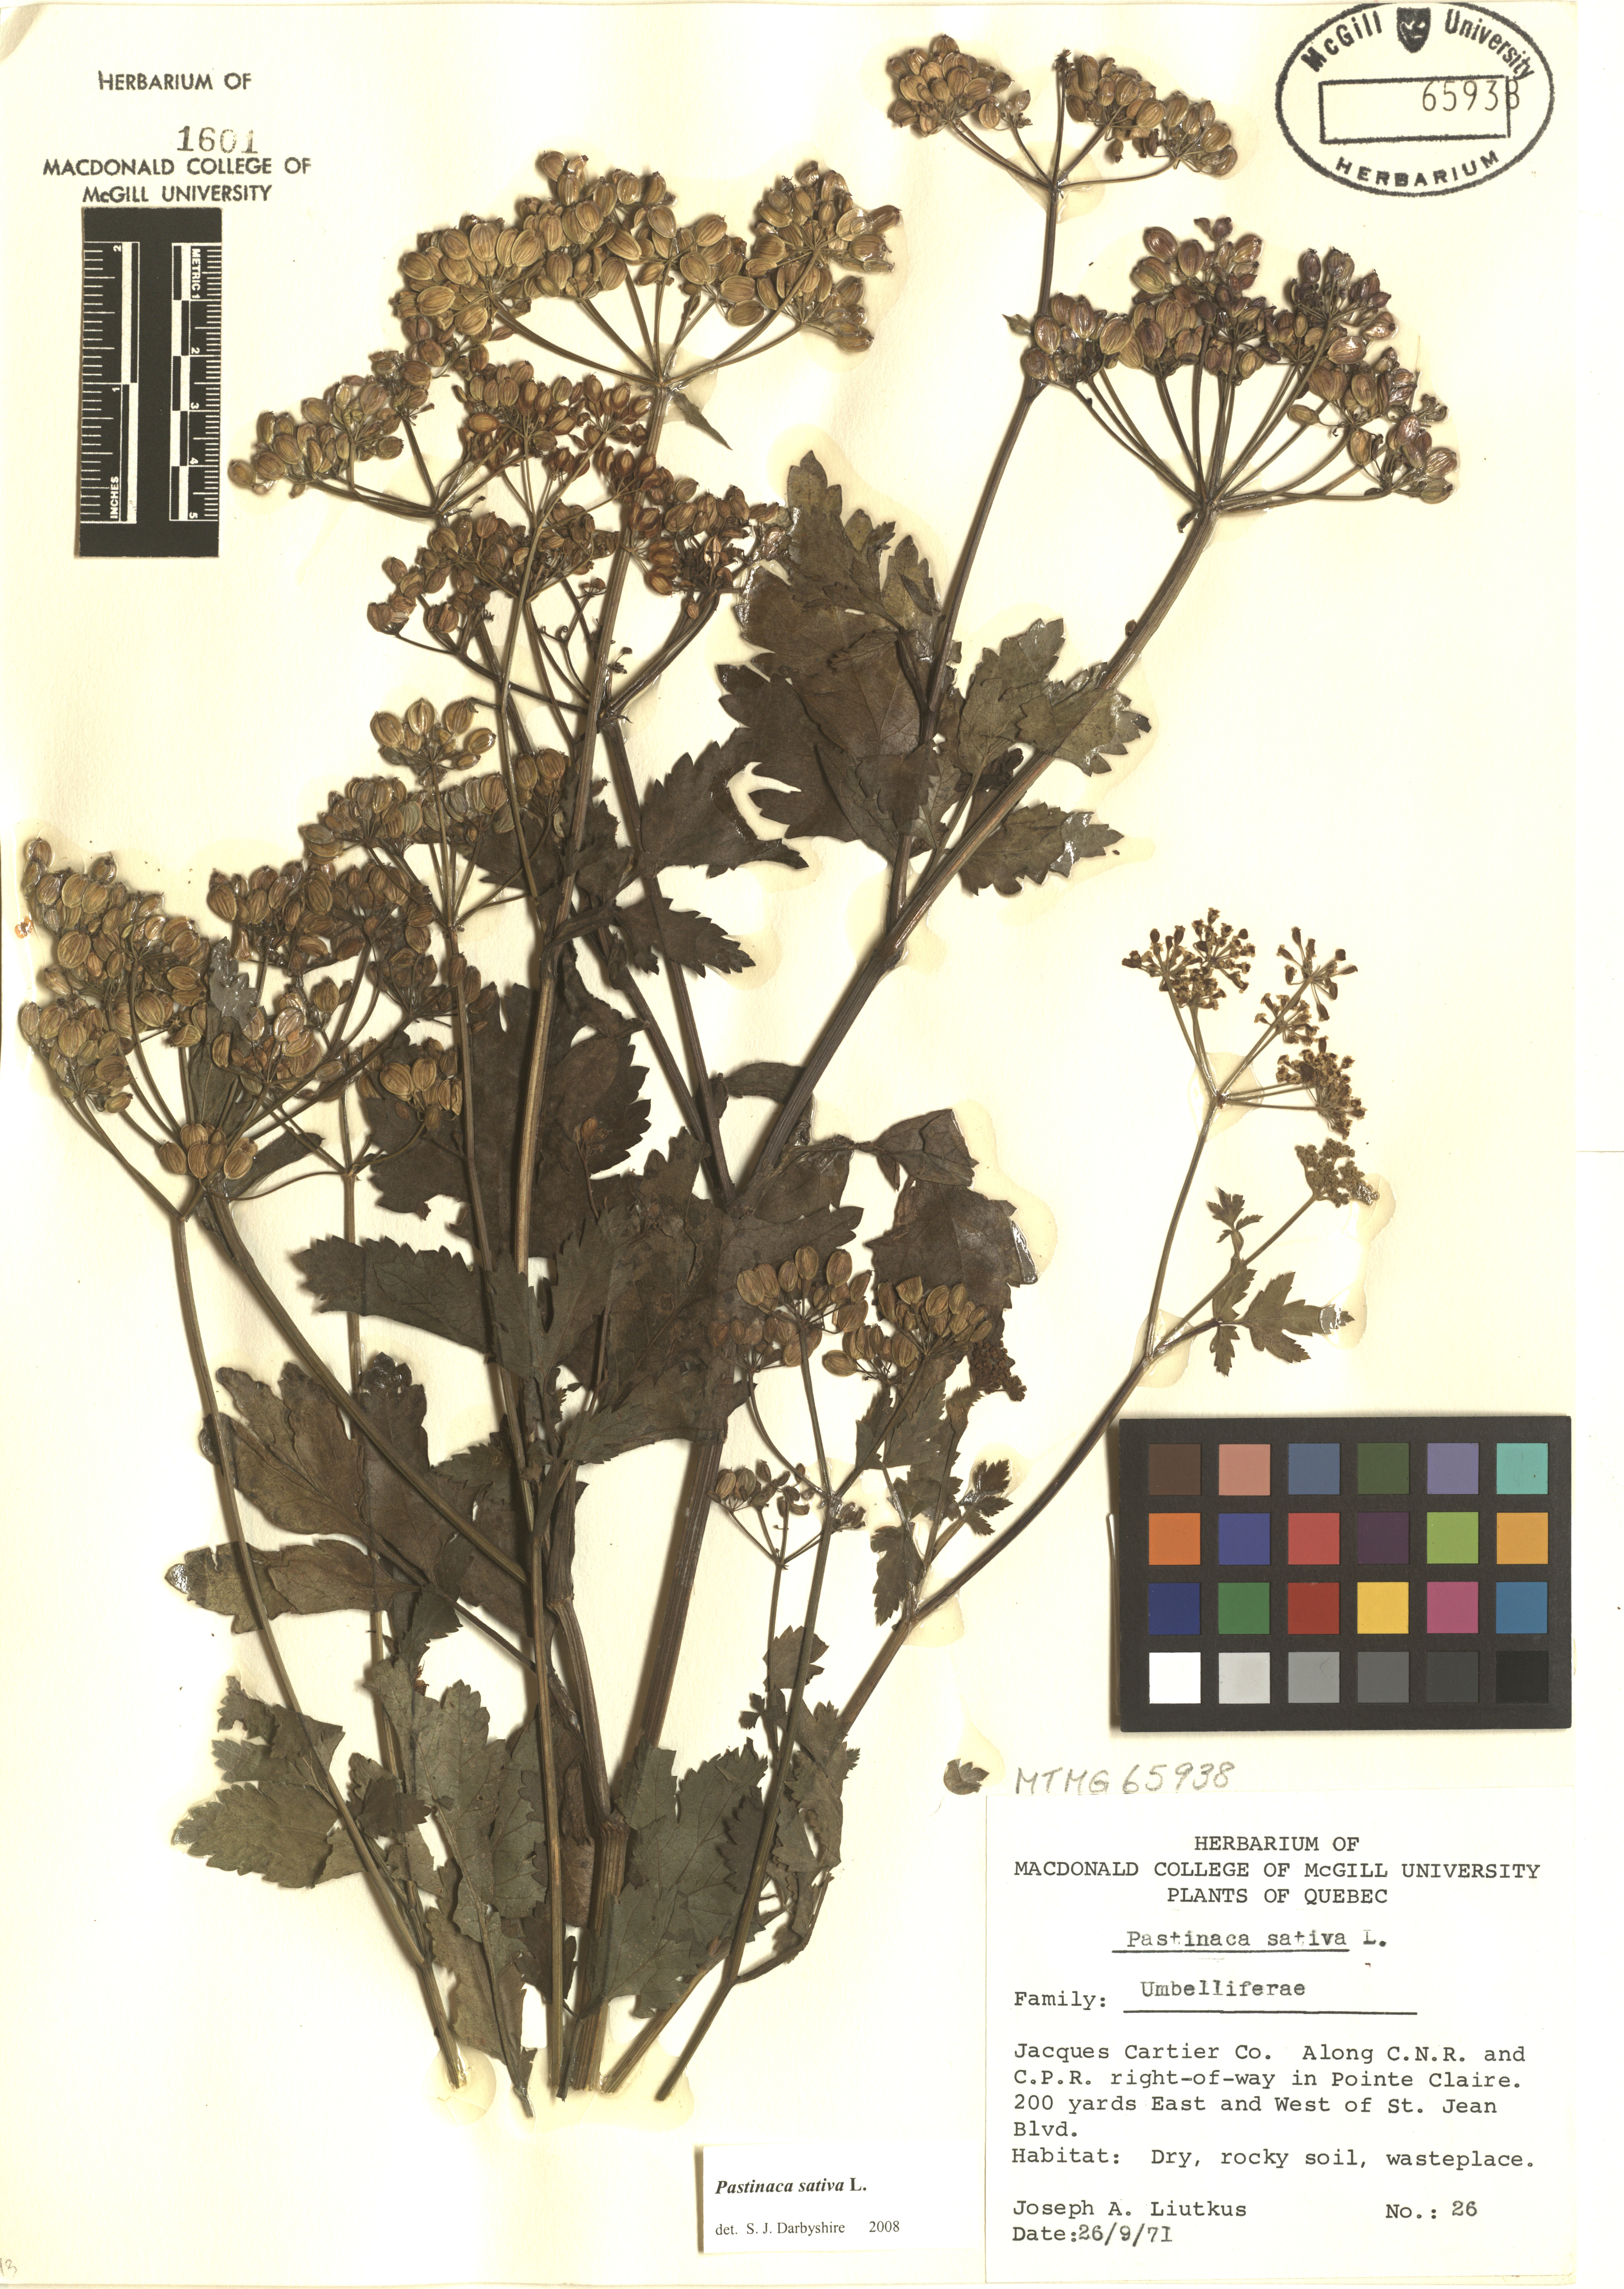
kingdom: Plantae
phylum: Tracheophyta
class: Magnoliopsida
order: Apiales
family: Apiaceae
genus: Pastinaca
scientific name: Pastinaca sativa
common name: Wild parsnip
